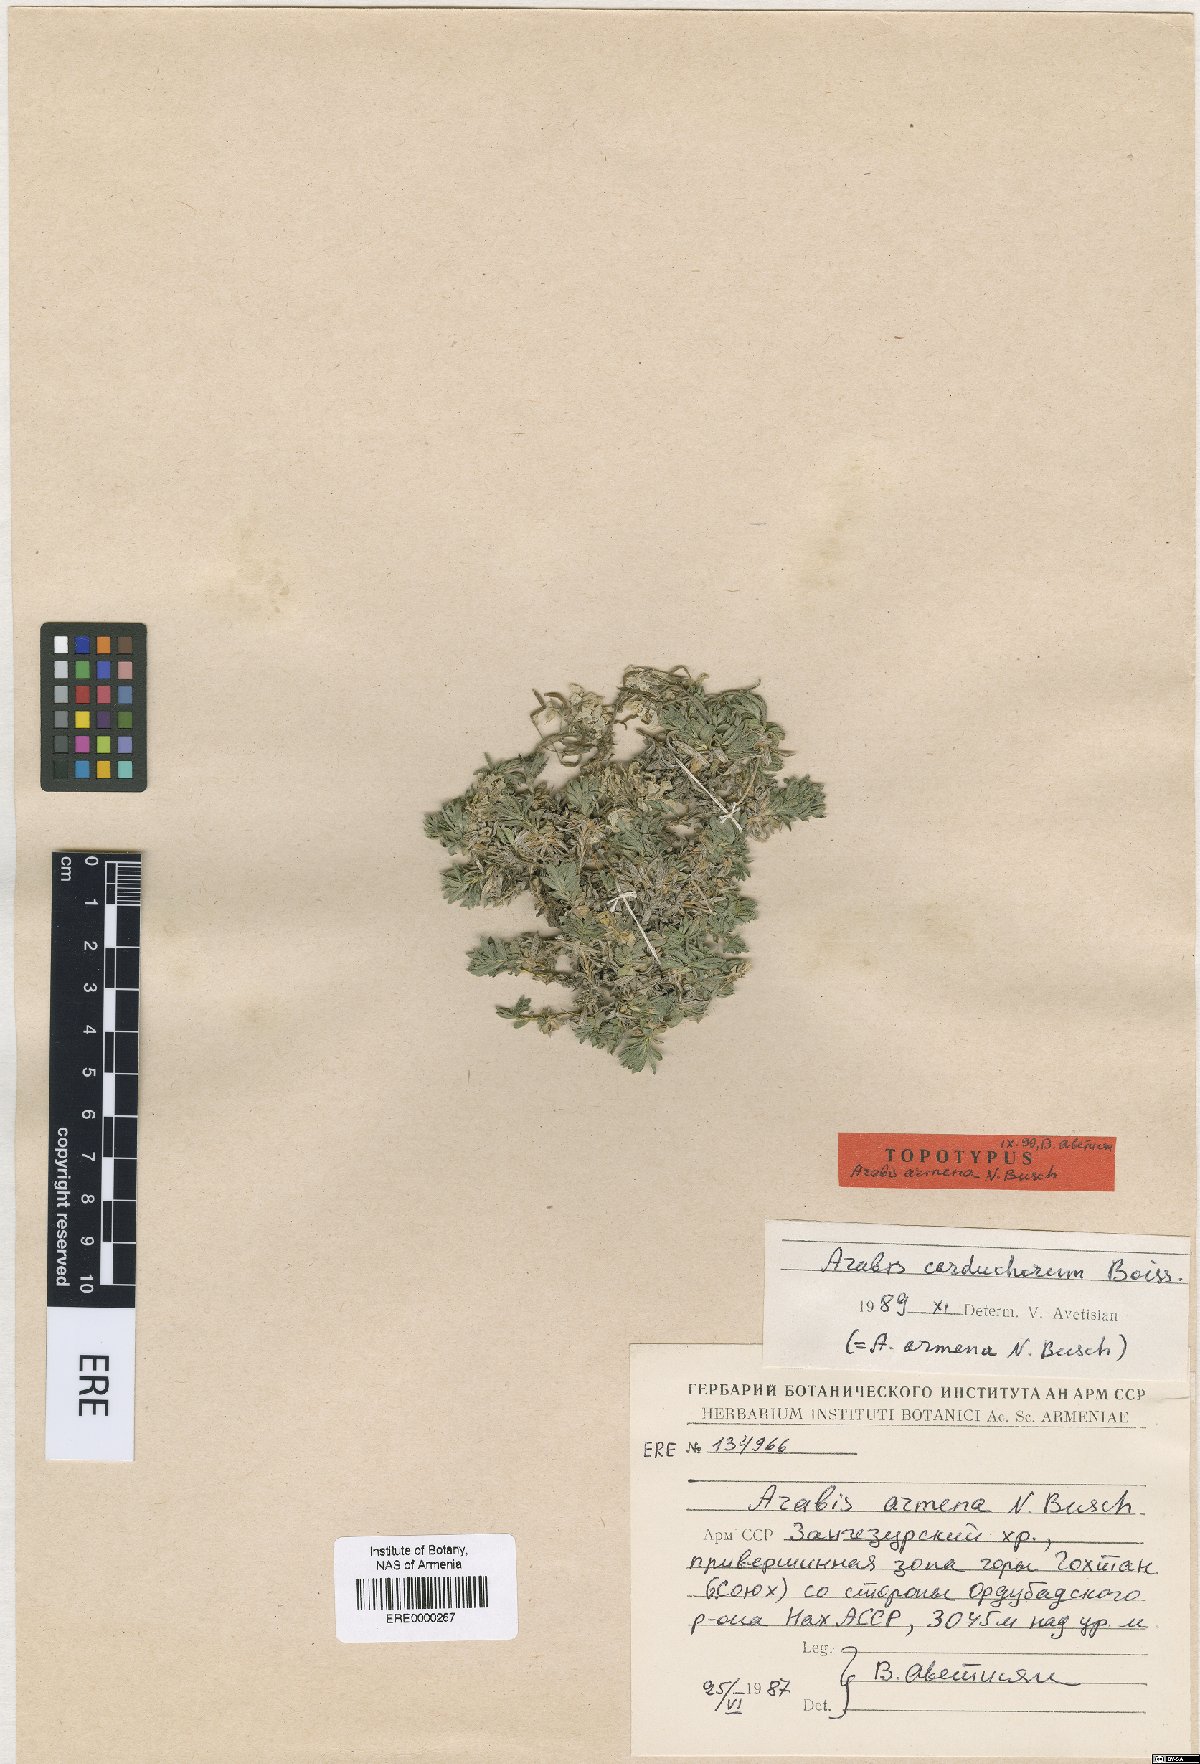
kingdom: Plantae
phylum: Tracheophyta
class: Magnoliopsida
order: Brassicales
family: Brassicaceae
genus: Arabis
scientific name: Arabis carduchorum
